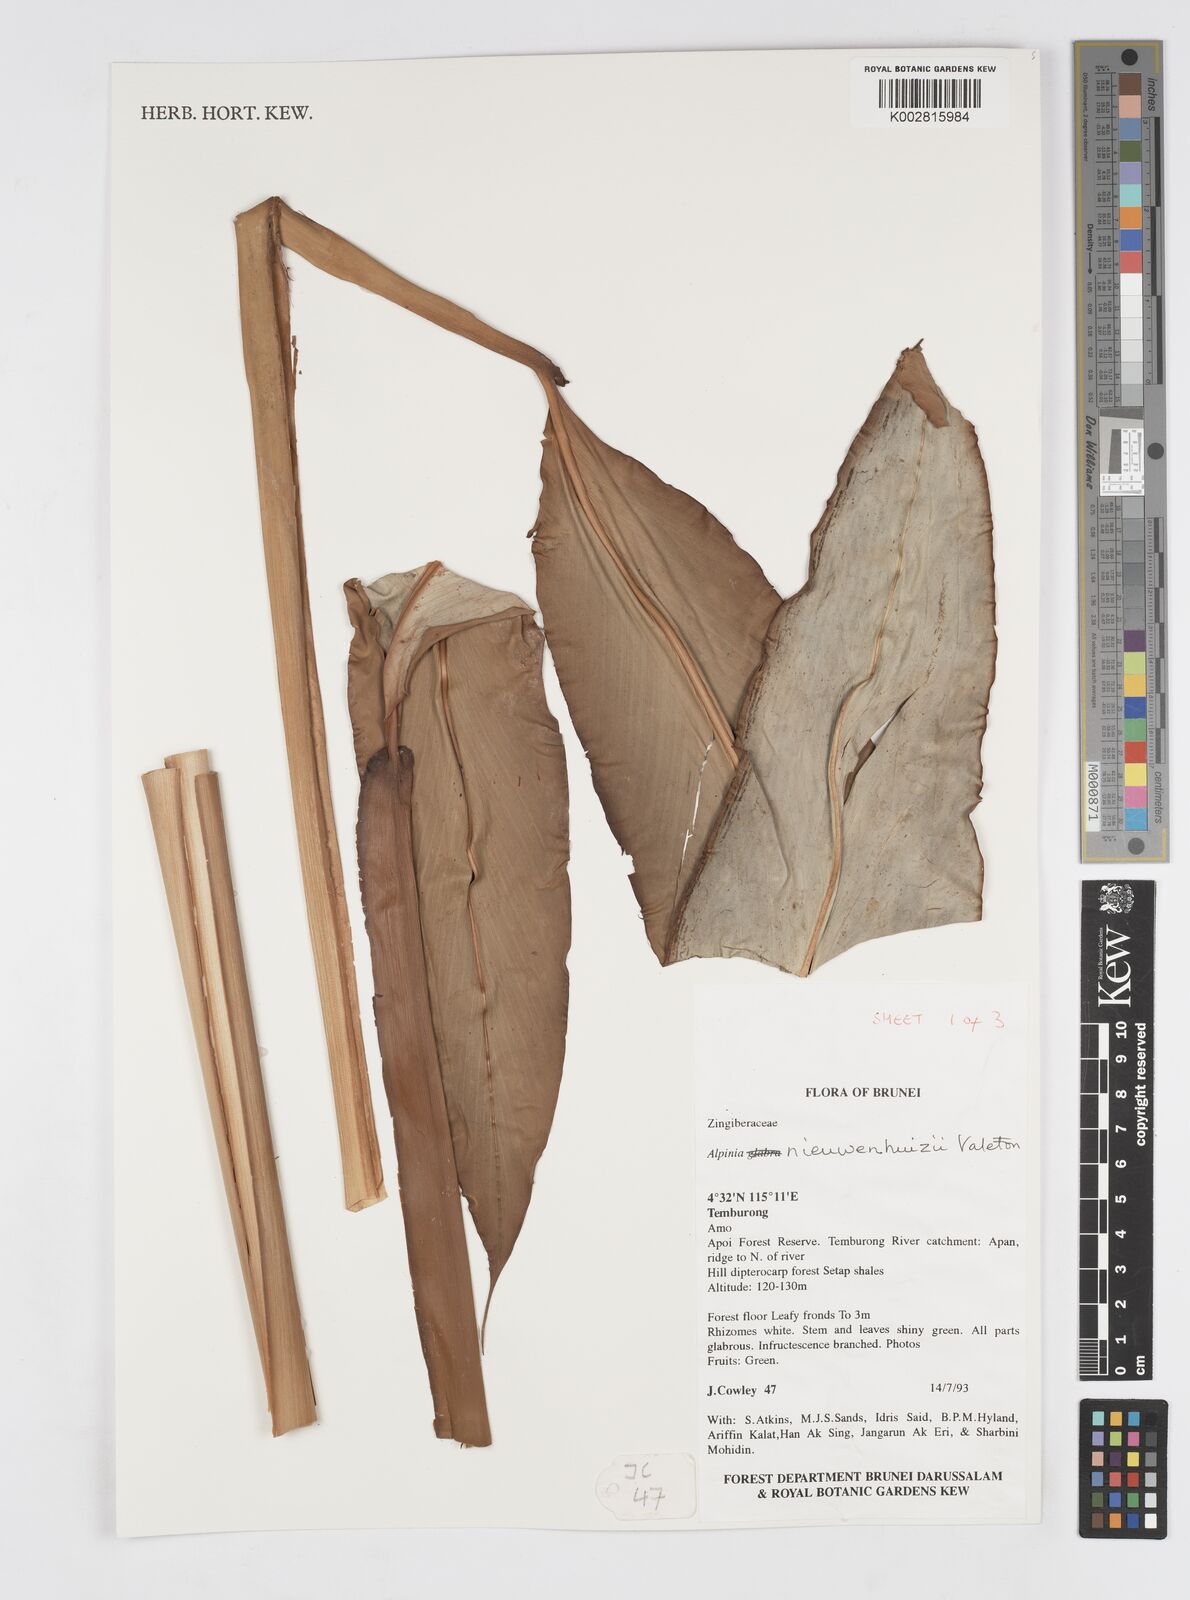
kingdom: Plantae
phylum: Tracheophyta
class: Liliopsida
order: Zingiberales
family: Zingiberaceae
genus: Alpinia
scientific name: Alpinia nieuwenhuizii
